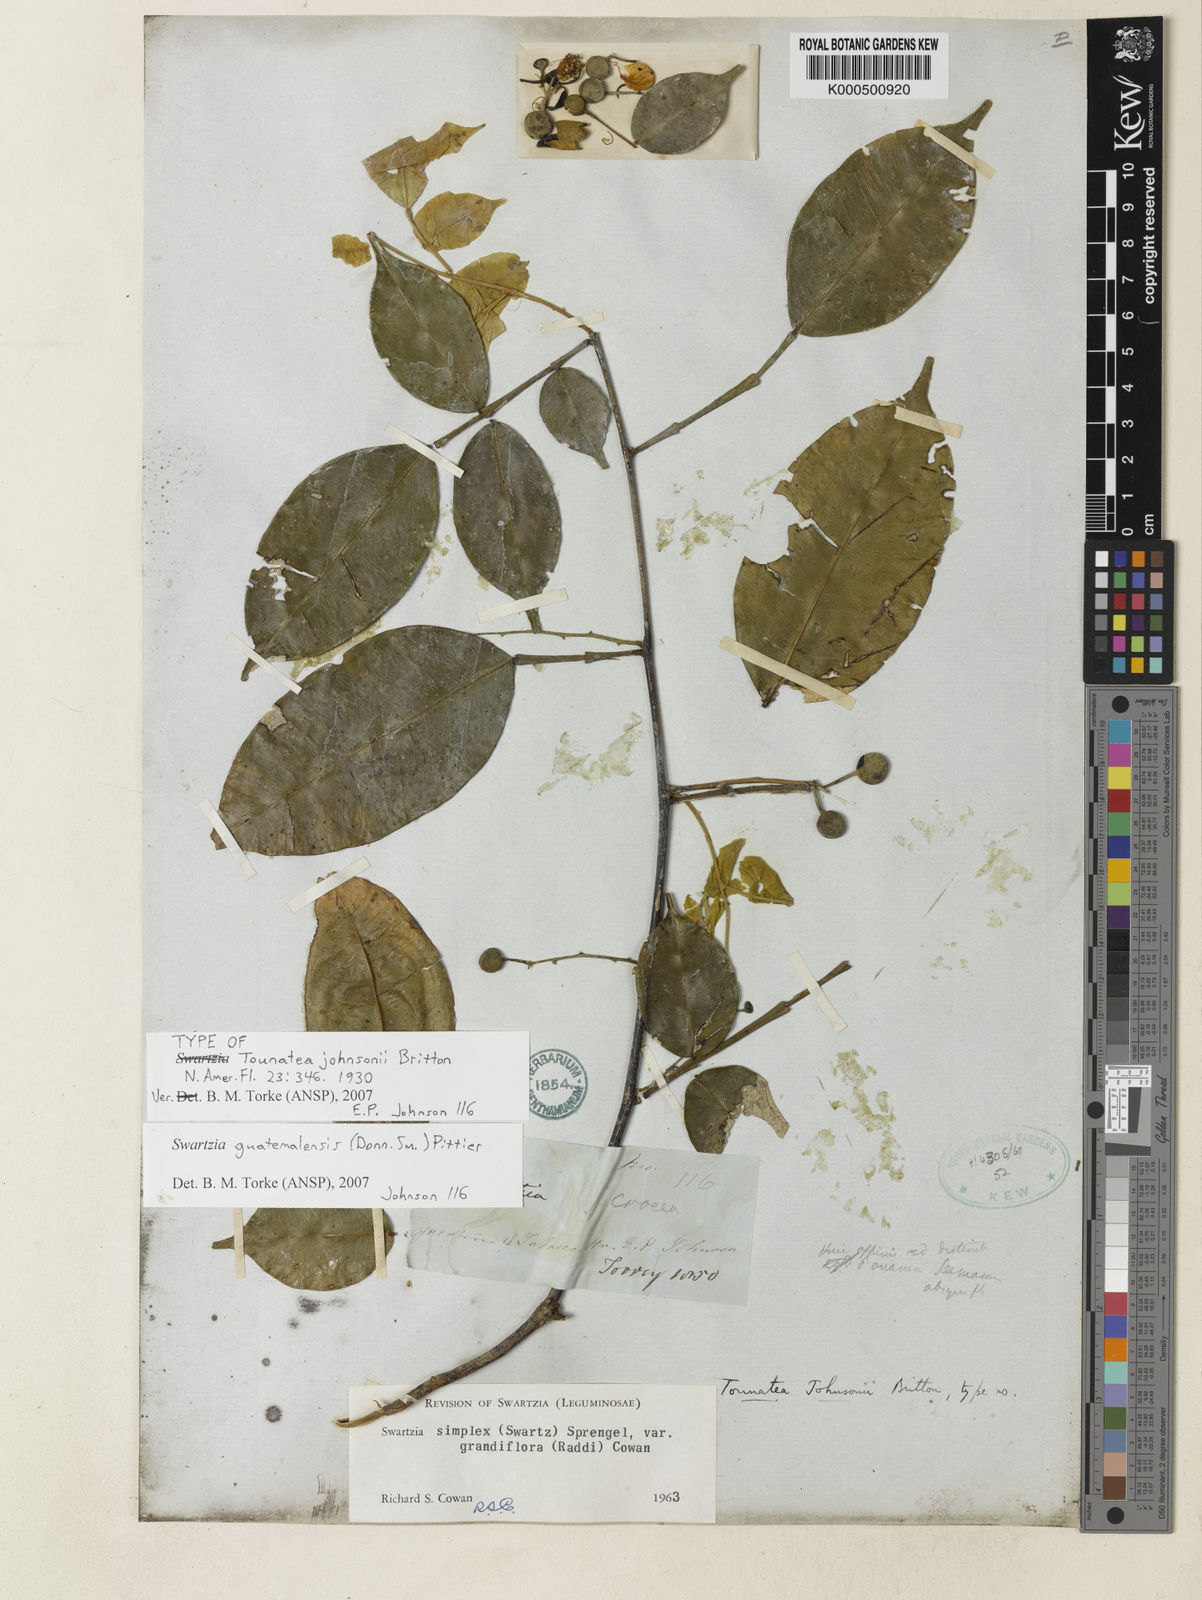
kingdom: Plantae
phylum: Tracheophyta
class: Magnoliopsida
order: Fabales
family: Fabaceae
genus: Swartzia
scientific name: Swartzia guatemalensis
